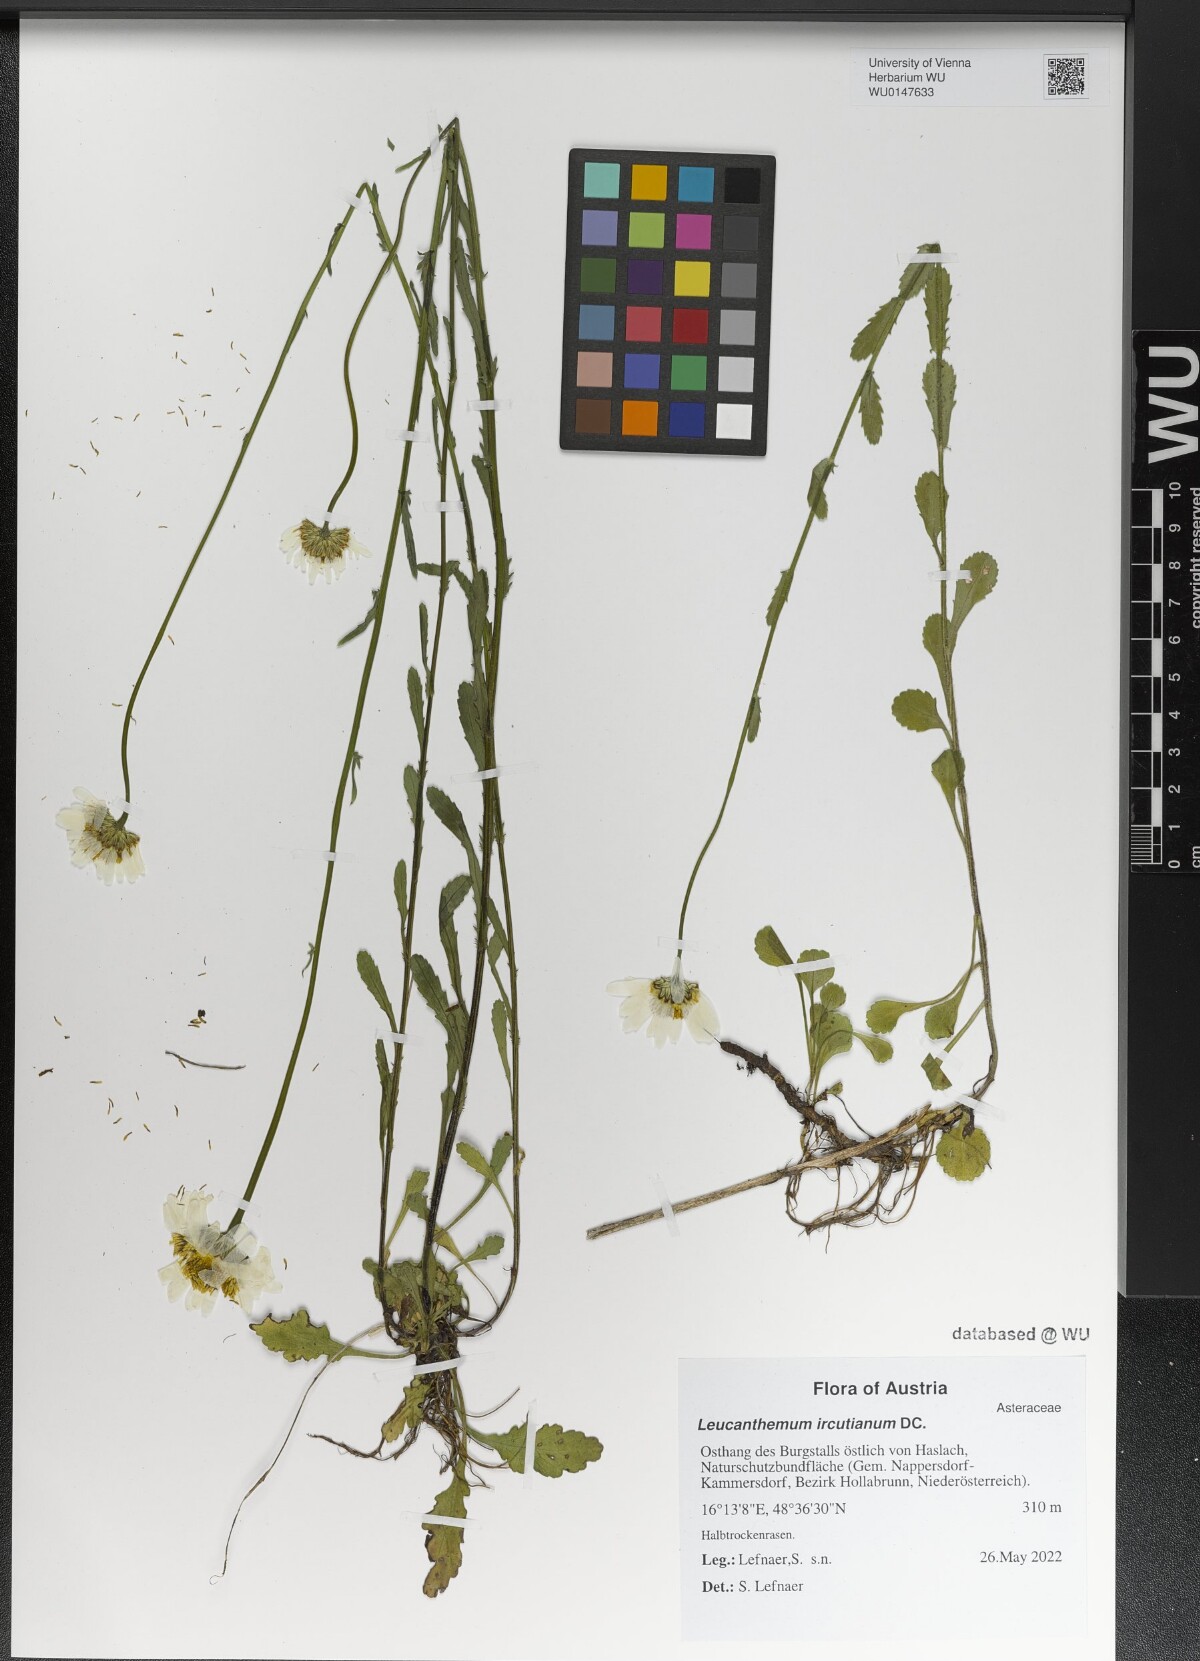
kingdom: Plantae
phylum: Tracheophyta
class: Magnoliopsida
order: Asterales
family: Asteraceae
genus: Leucanthemum
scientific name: Leucanthemum ircutianum
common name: Daisy
